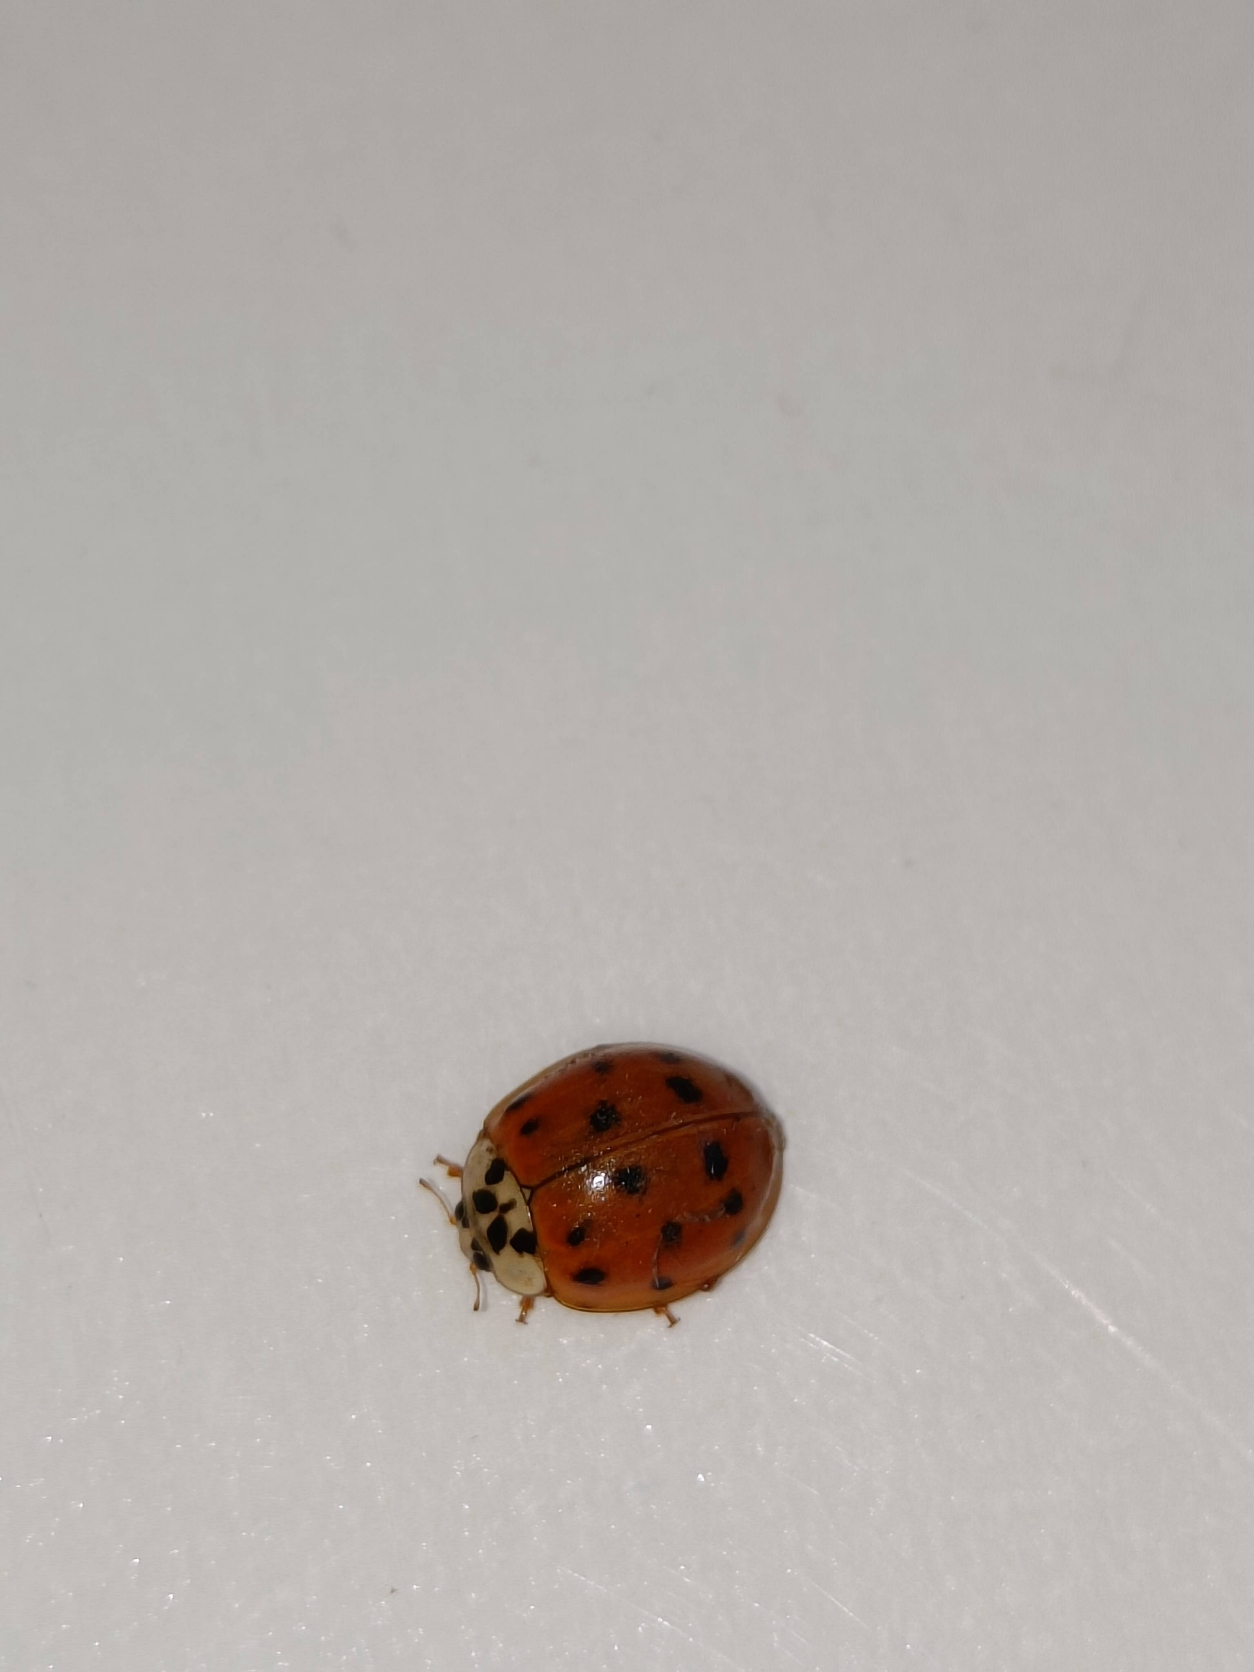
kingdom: Animalia
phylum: Arthropoda
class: Insecta
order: Coleoptera
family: Coccinellidae
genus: Harmonia
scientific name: Harmonia axyridis
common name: Harlekinmariehøne
